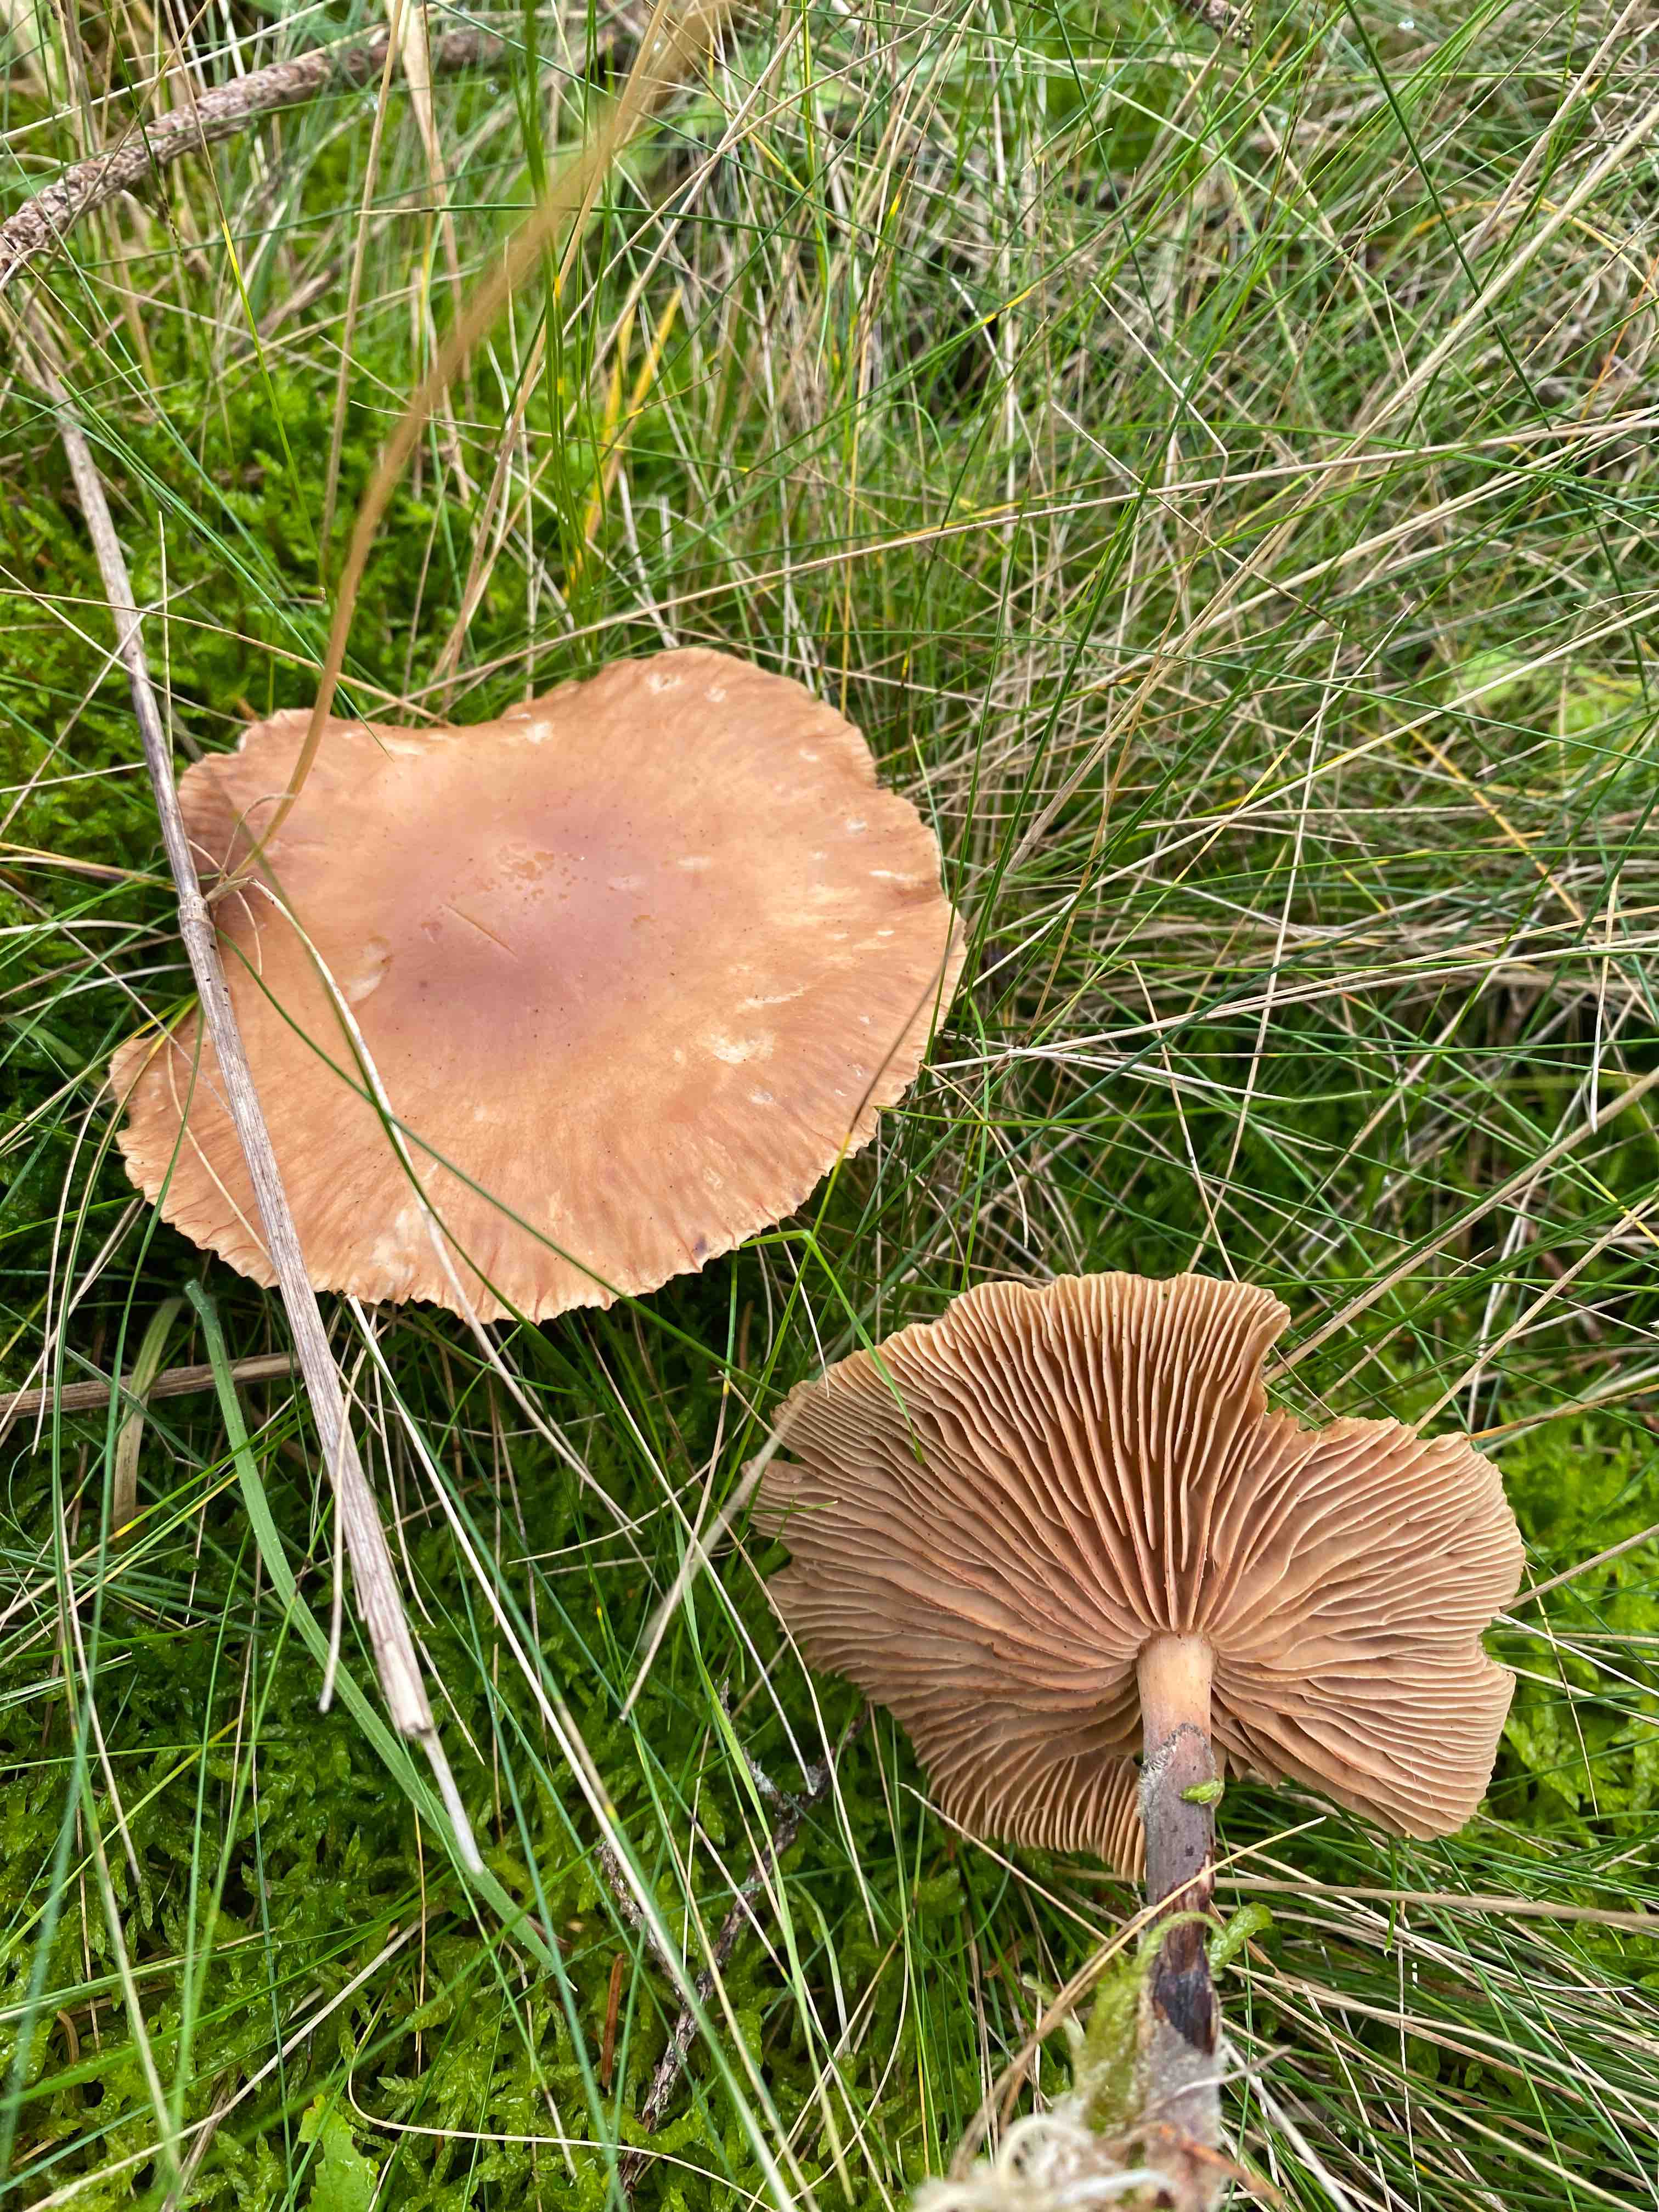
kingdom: Fungi
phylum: Basidiomycota
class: Agaricomycetes
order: Agaricales
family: Omphalotaceae
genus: Collybiopsis
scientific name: Collybiopsis peronata
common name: bestøvlet fladhat
